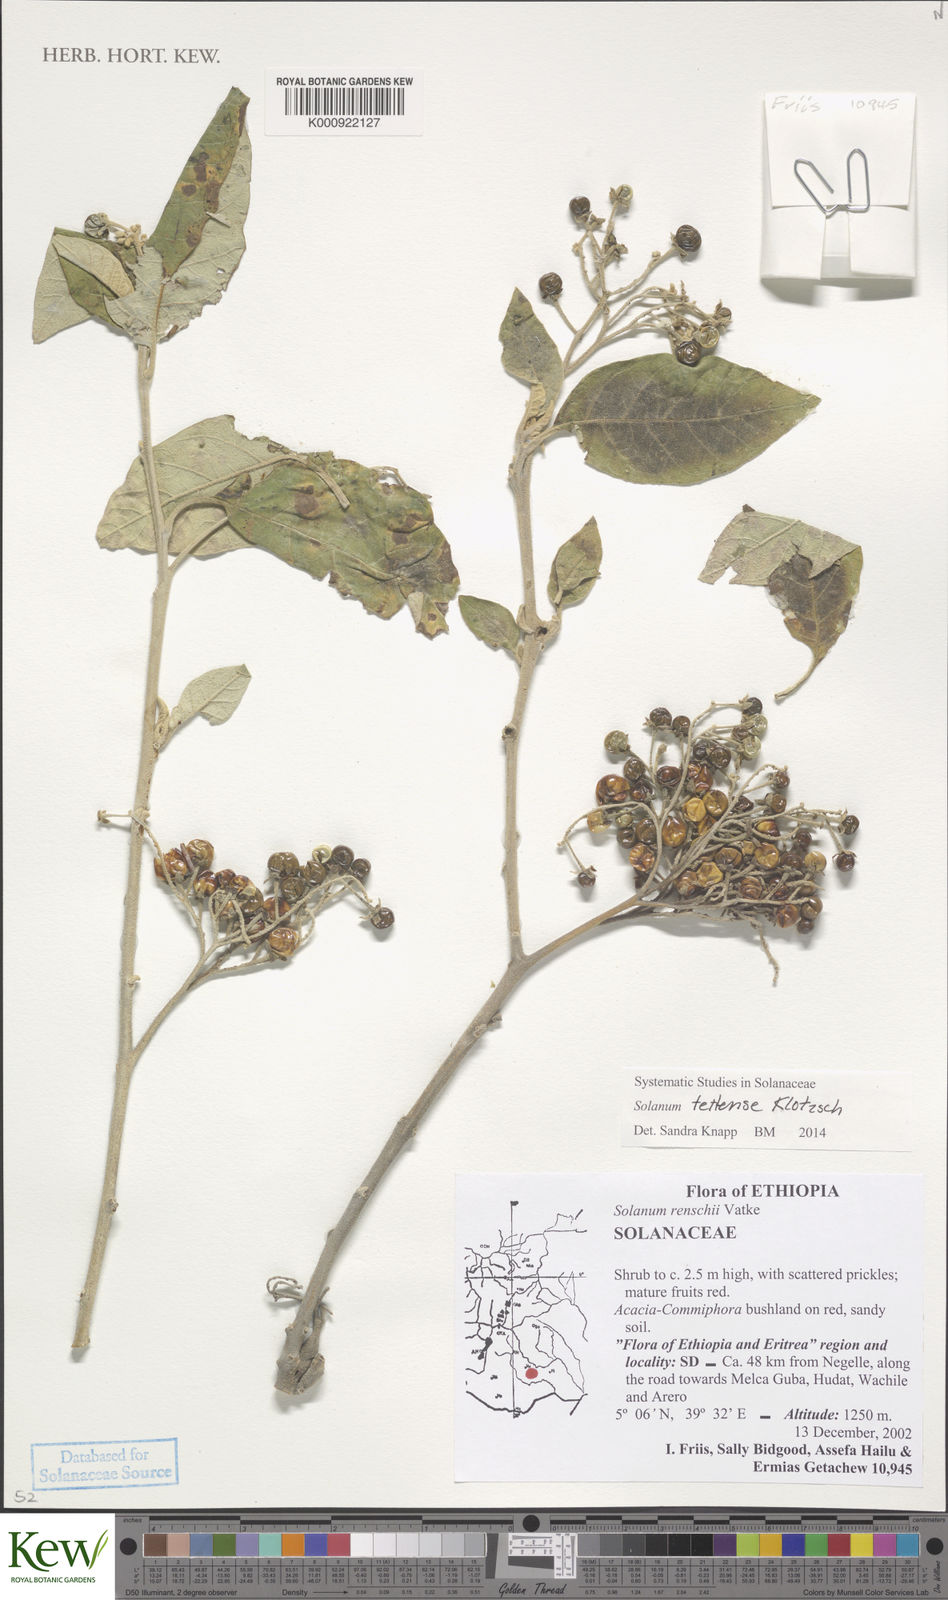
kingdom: Plantae
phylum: Tracheophyta
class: Magnoliopsida
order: Solanales
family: Solanaceae
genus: Solanum
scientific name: Solanum tettense
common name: Mozambique bitter apple
